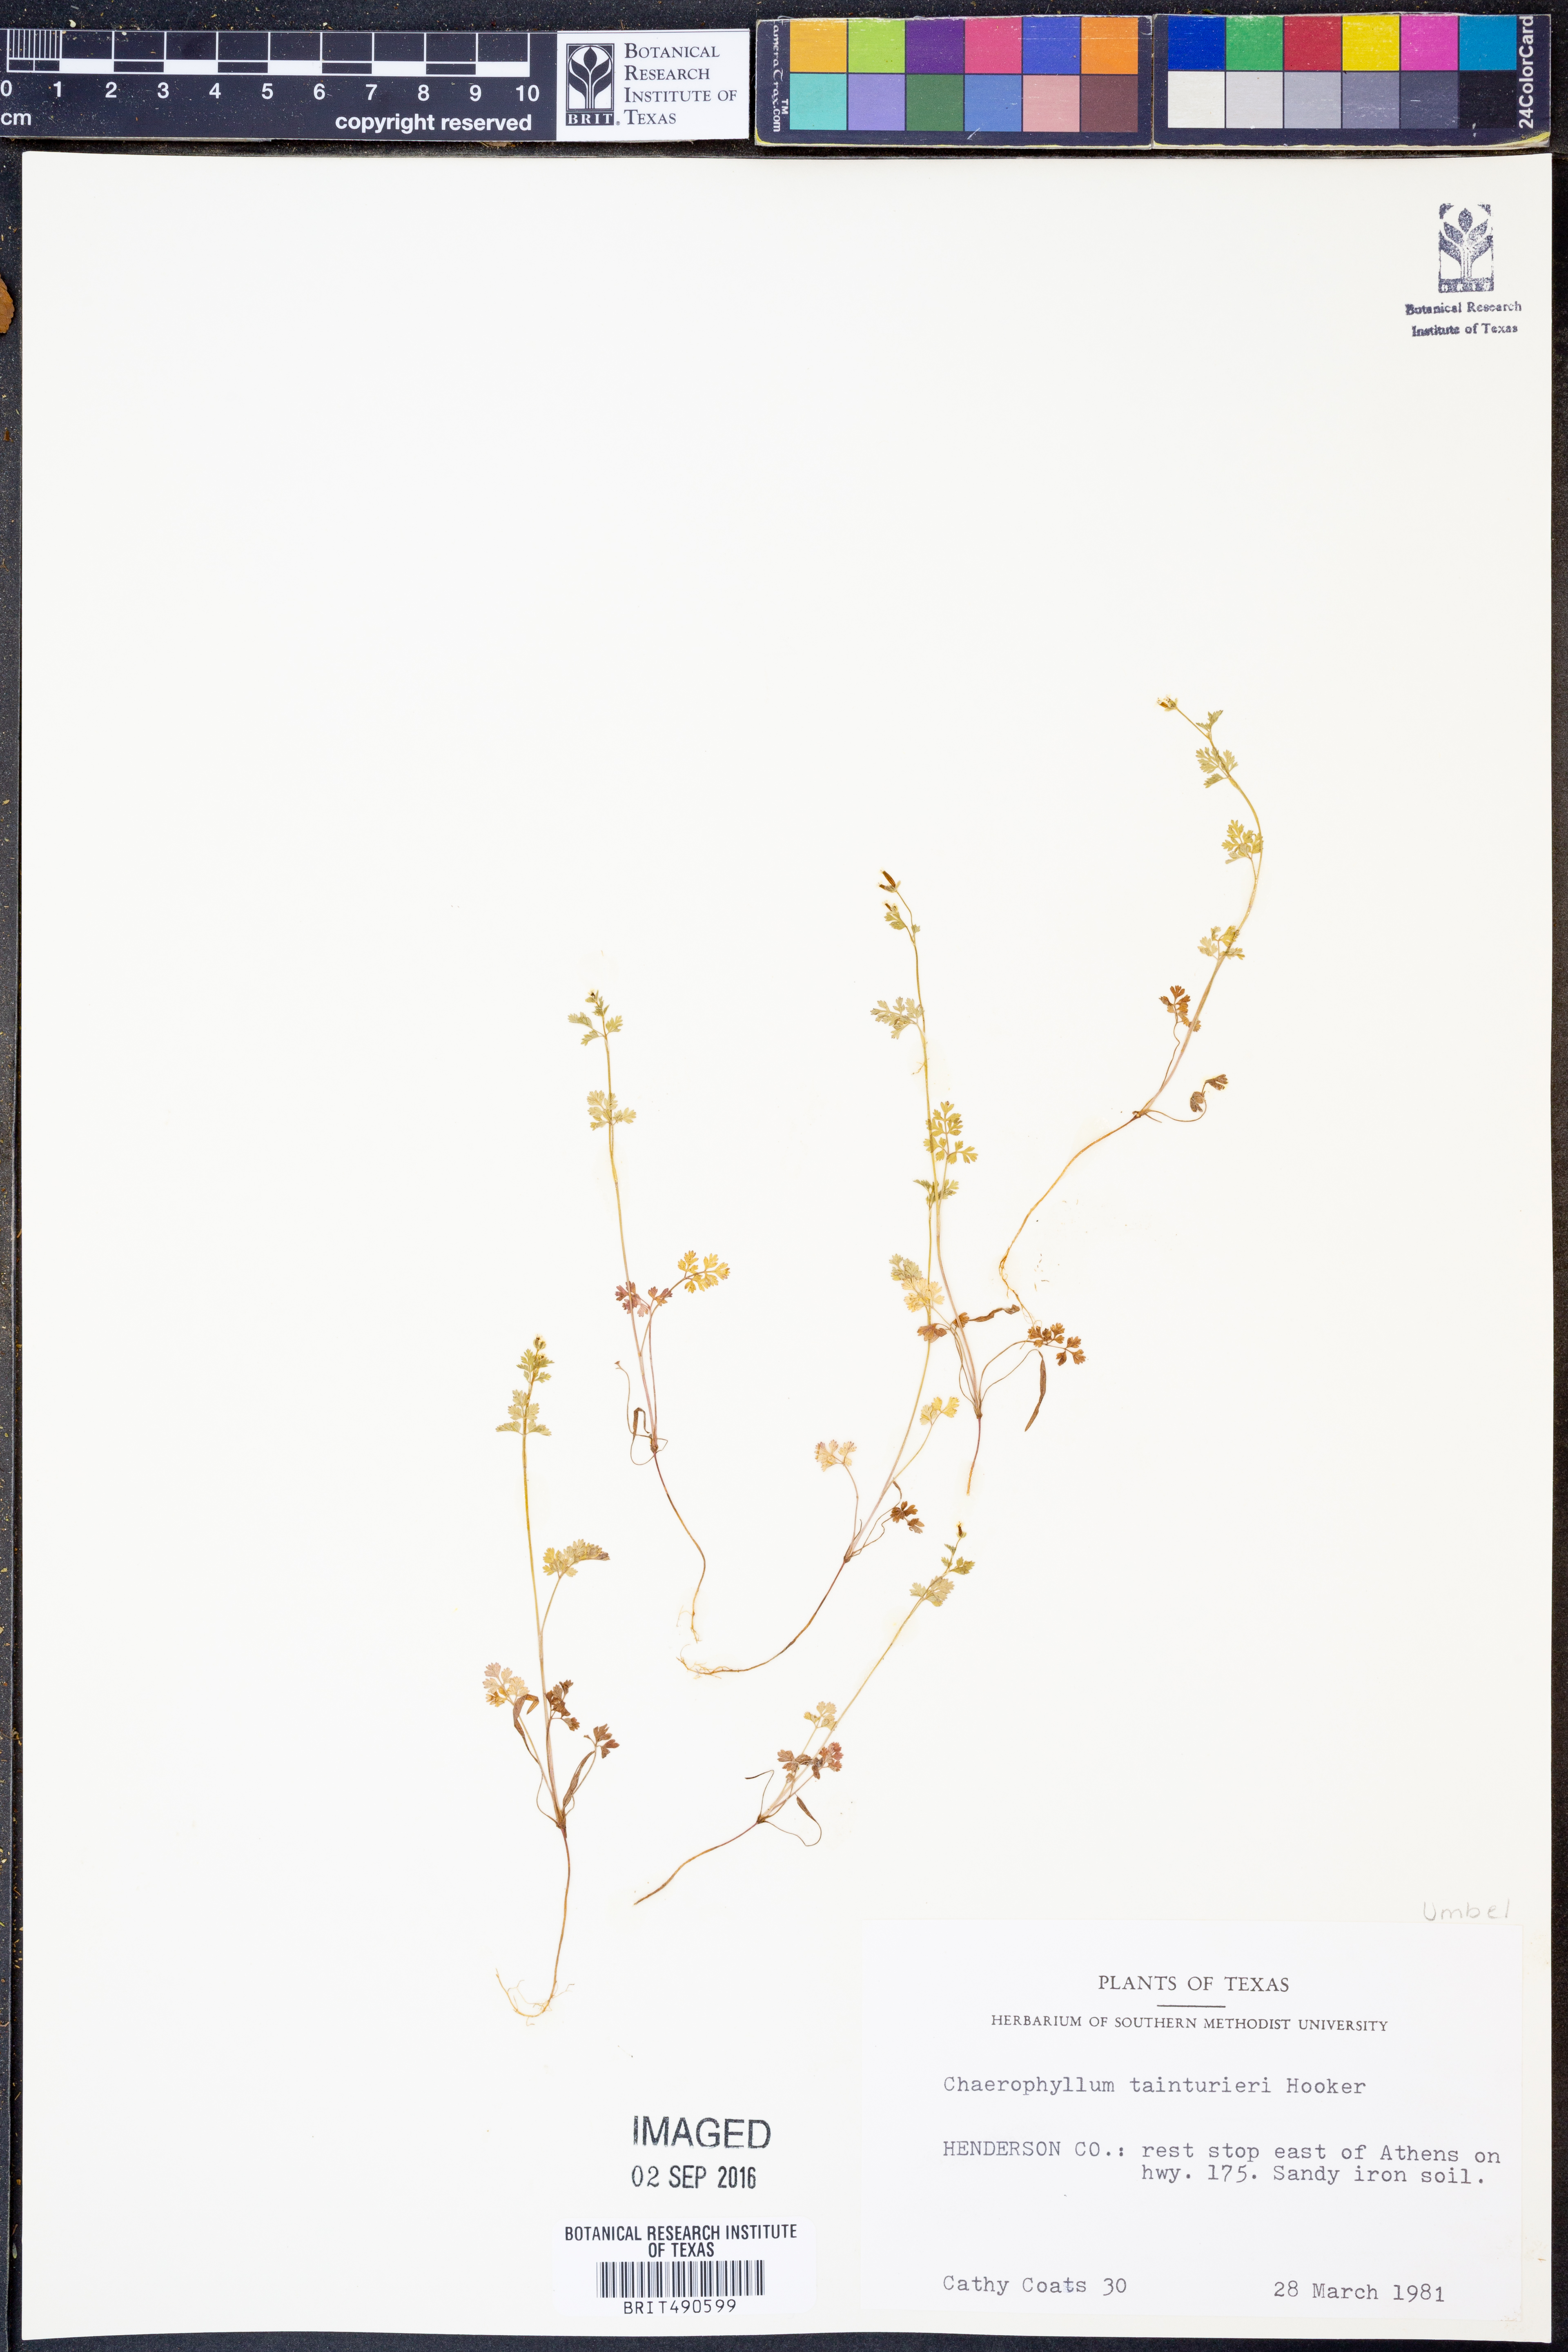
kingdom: Plantae
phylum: Tracheophyta
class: Magnoliopsida
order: Apiales
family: Apiaceae
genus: Chaerophyllum
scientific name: Chaerophyllum tainturieri
